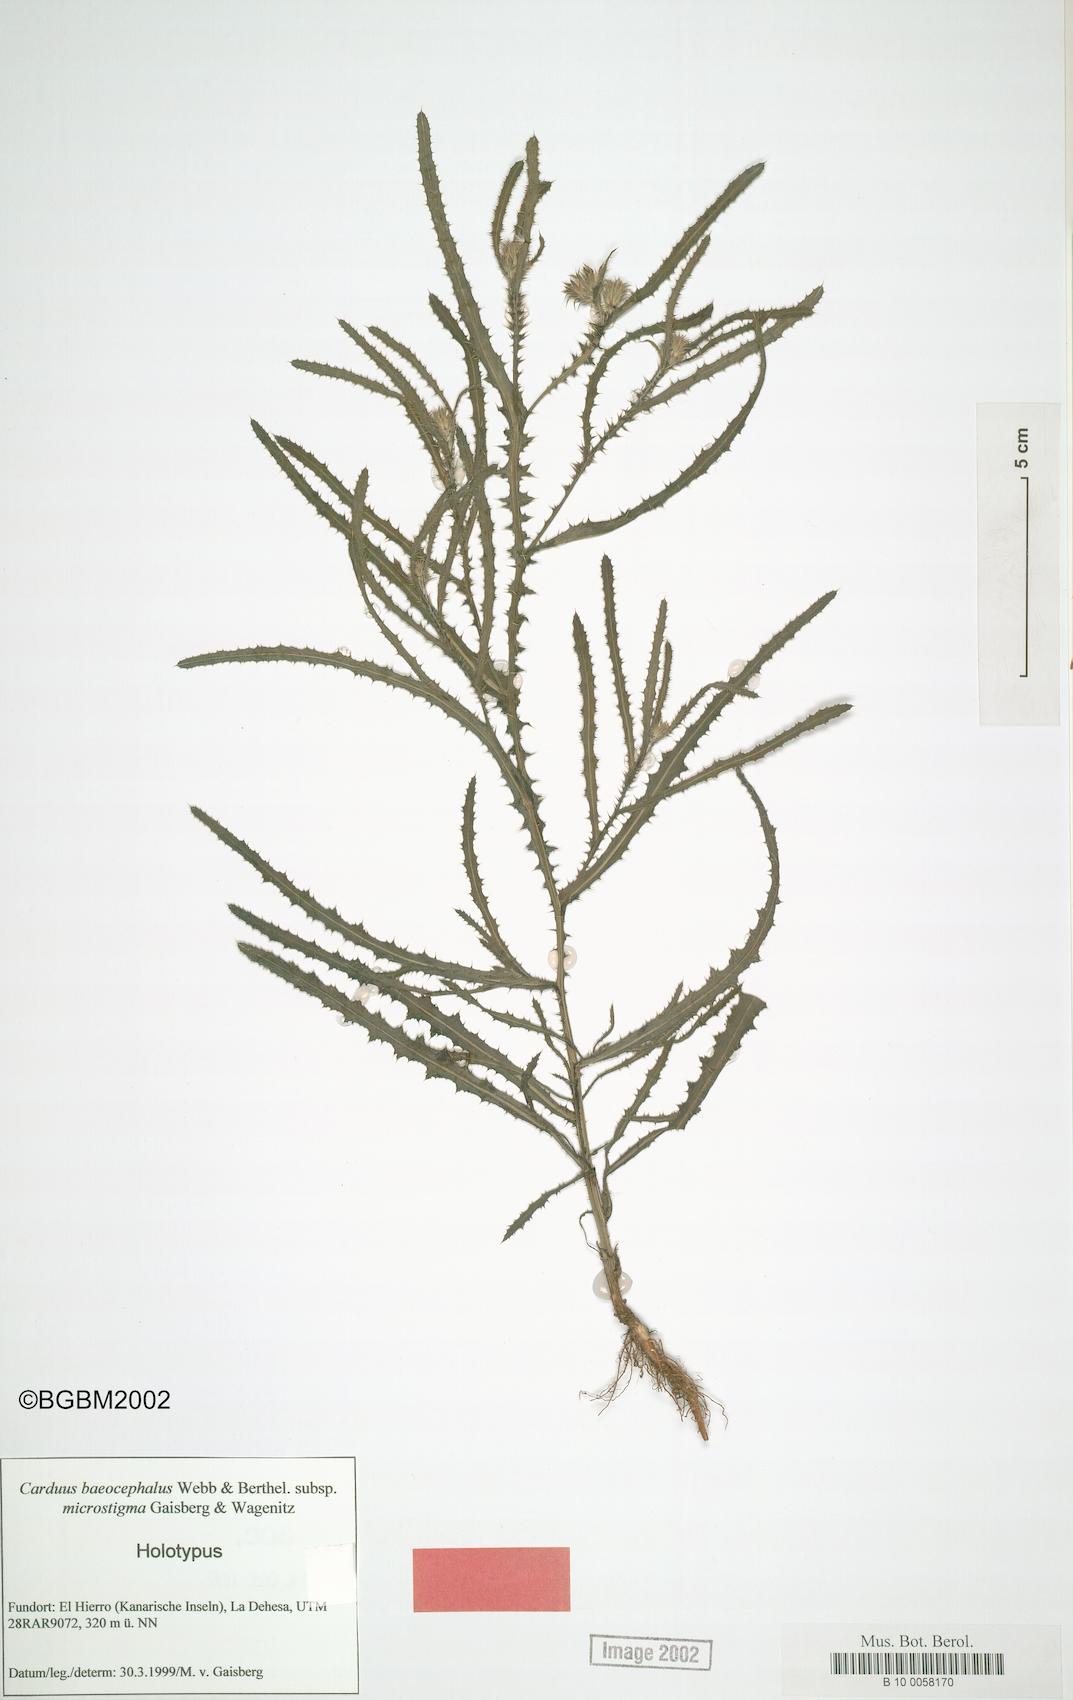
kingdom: Plantae
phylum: Tracheophyta
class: Magnoliopsida
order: Asterales
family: Asteraceae
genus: Carduus
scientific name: Carduus baeocephalus
